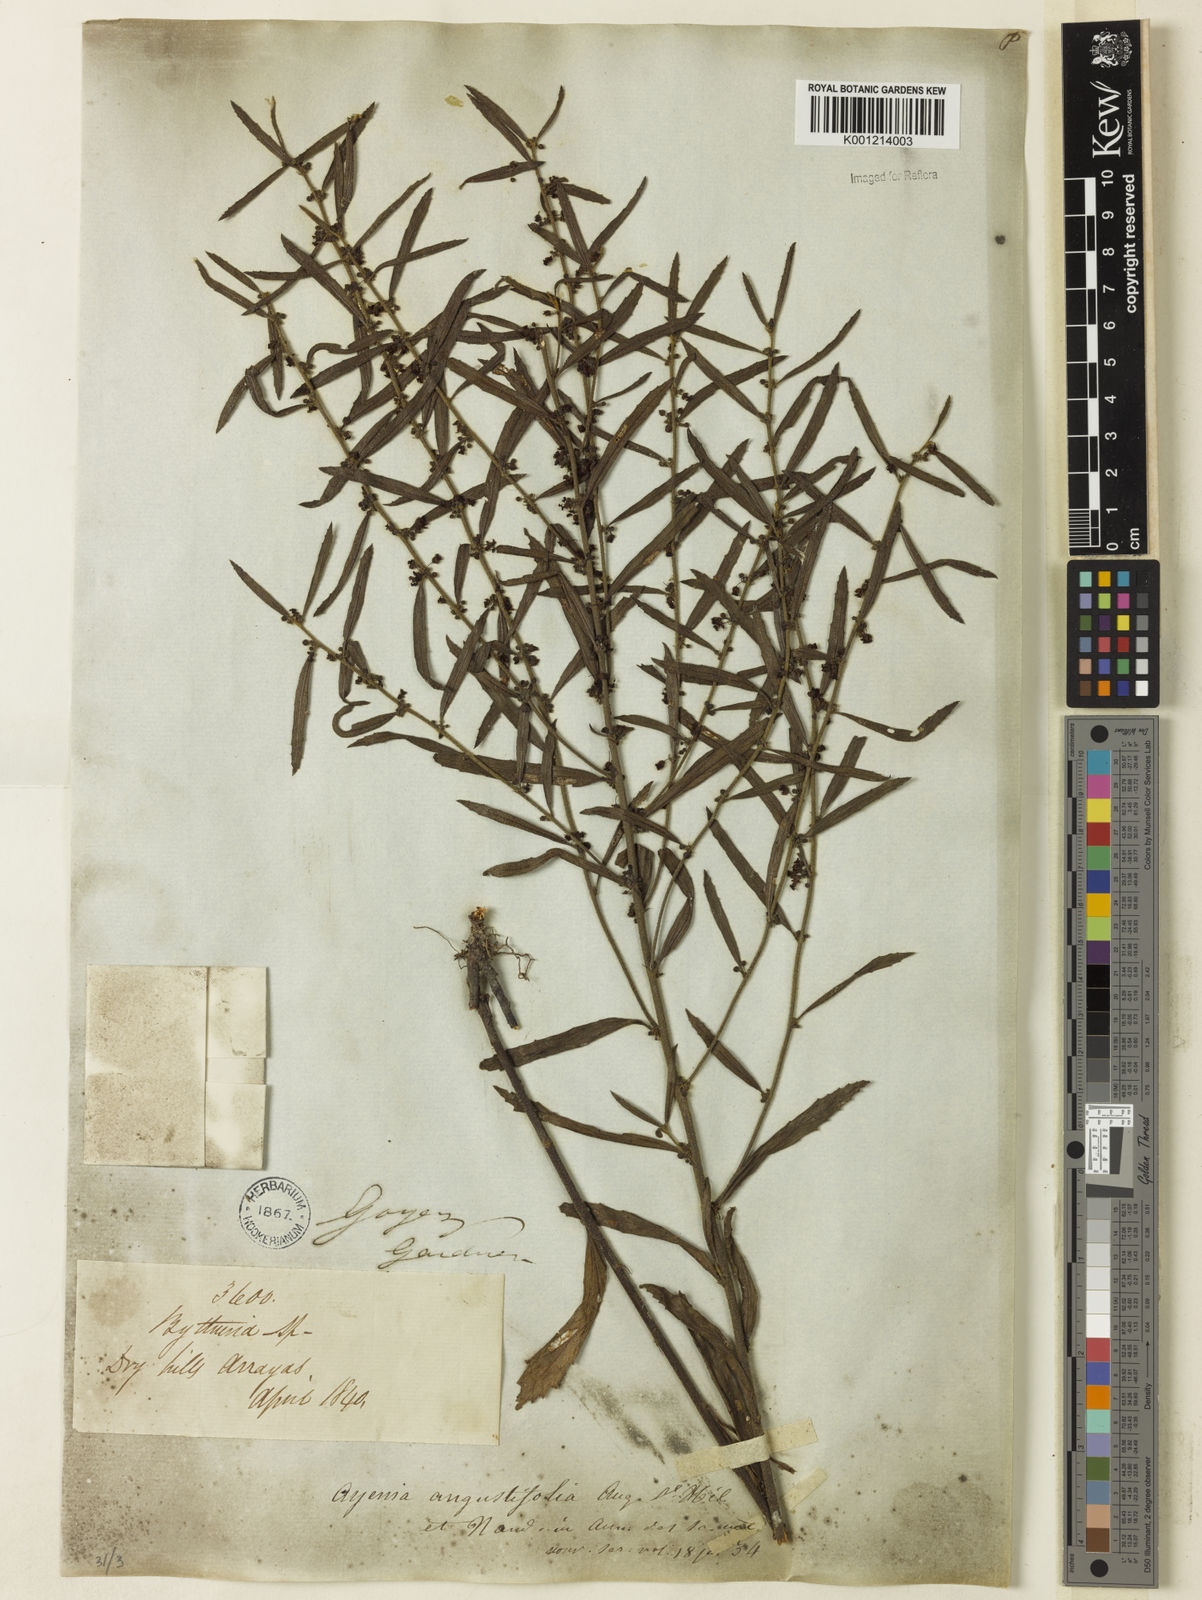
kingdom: Plantae
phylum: Tracheophyta
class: Magnoliopsida
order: Malvales
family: Malvaceae
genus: Ayenia
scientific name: Ayenia angustifolia
